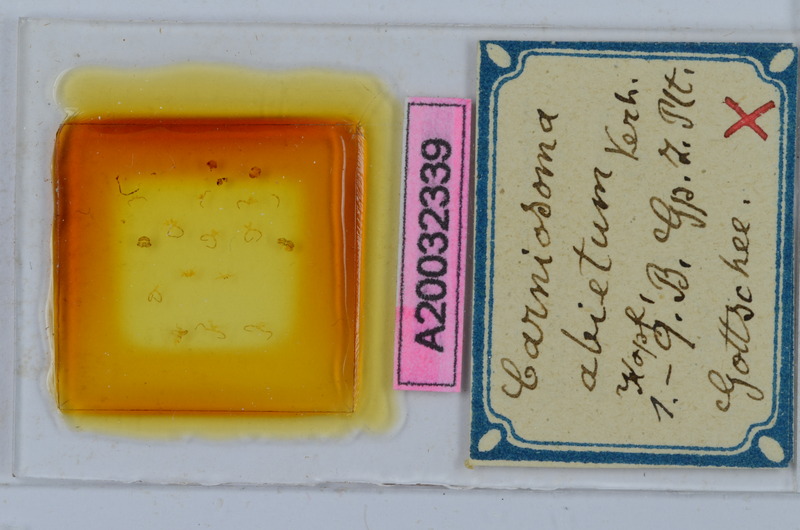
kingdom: Animalia
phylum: Arthropoda
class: Diplopoda
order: Chordeumatida
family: Craspedosomatidae
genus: Carniosoma
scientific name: Carniosoma abietum
